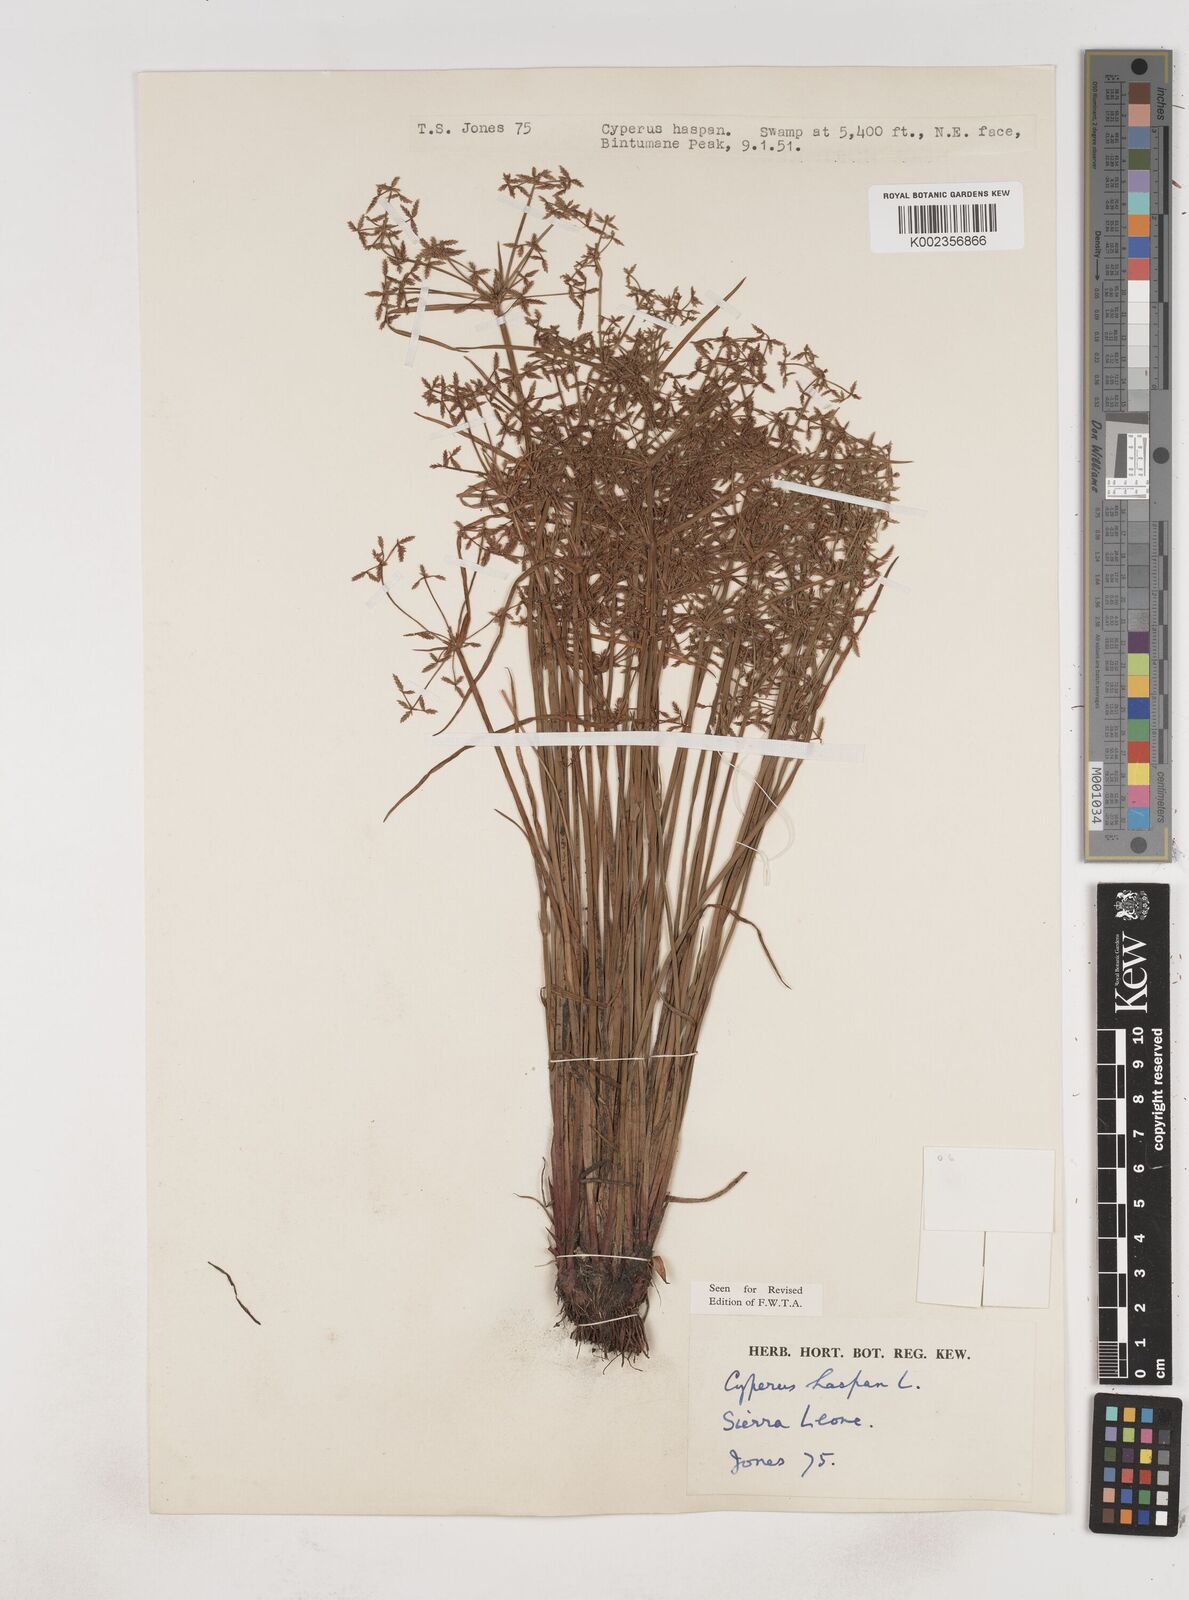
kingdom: Plantae
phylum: Tracheophyta
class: Liliopsida
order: Poales
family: Cyperaceae
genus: Cyperus
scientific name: Cyperus haspan
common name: Haspan flatsedge
